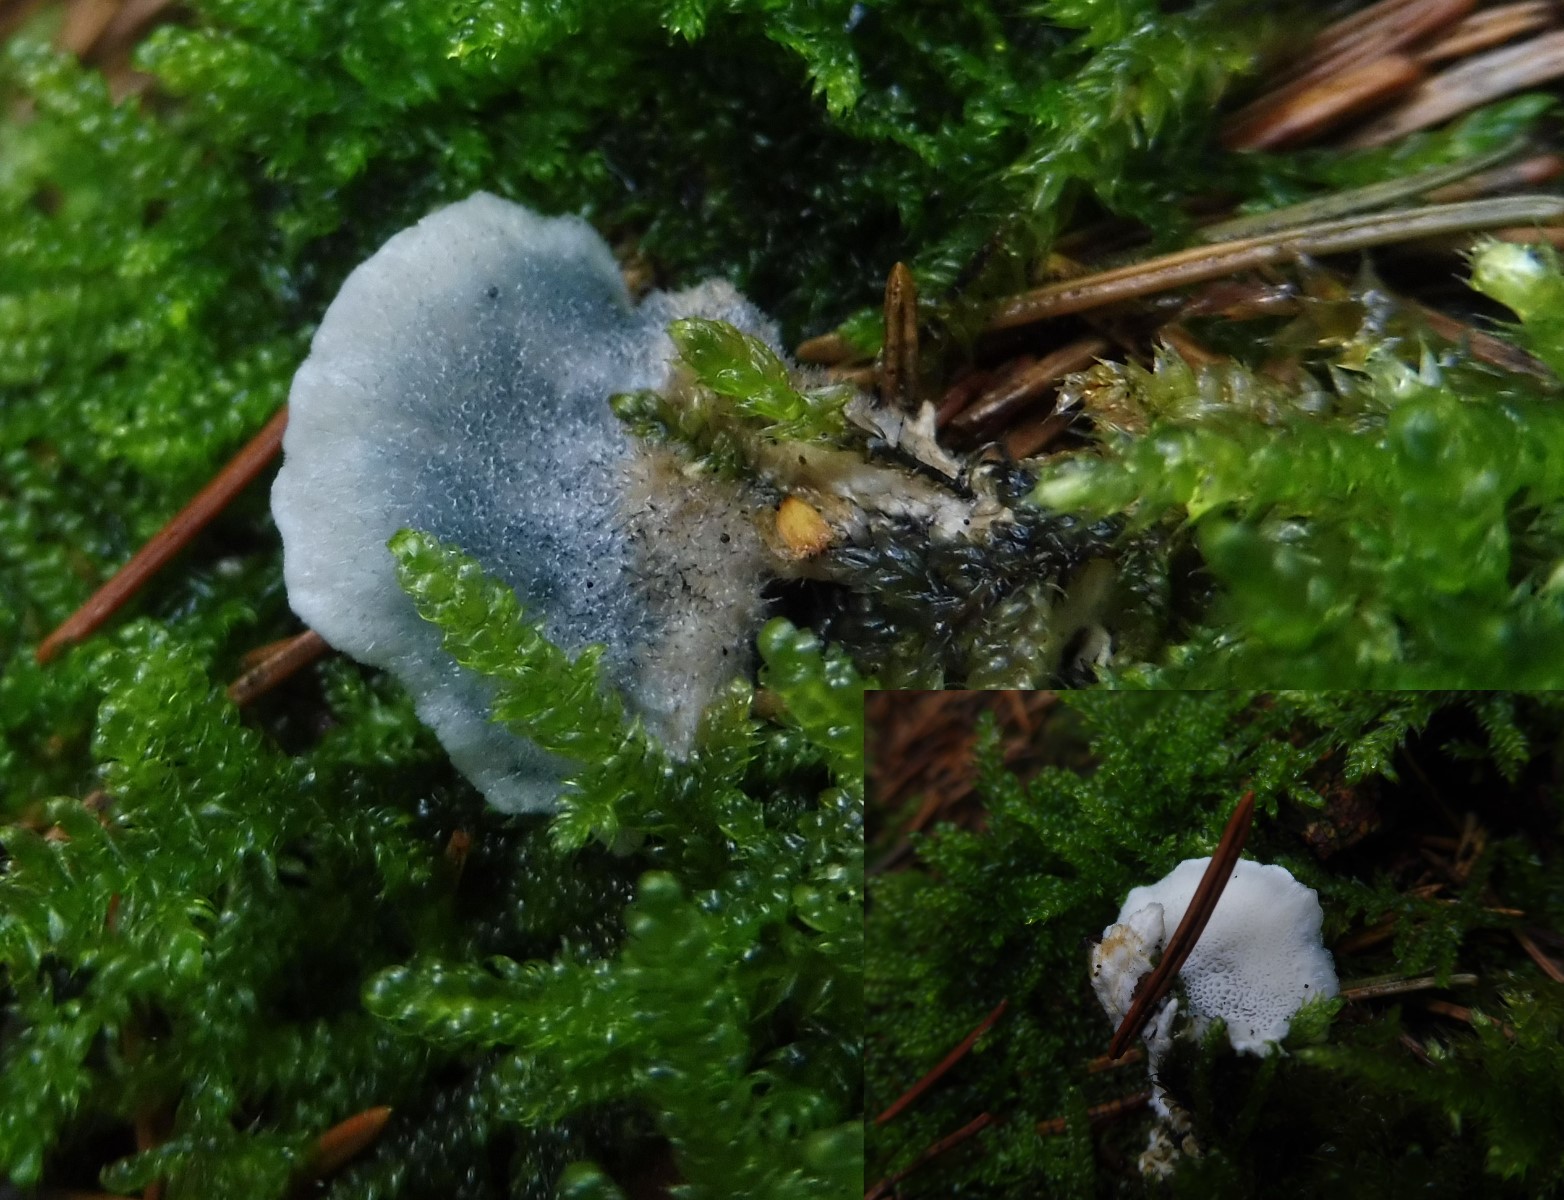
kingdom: Fungi
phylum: Basidiomycota
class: Agaricomycetes
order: Polyporales
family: Polyporaceae
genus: Cyanosporus
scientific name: Cyanosporus caesius
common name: blålig kødporesvamp
